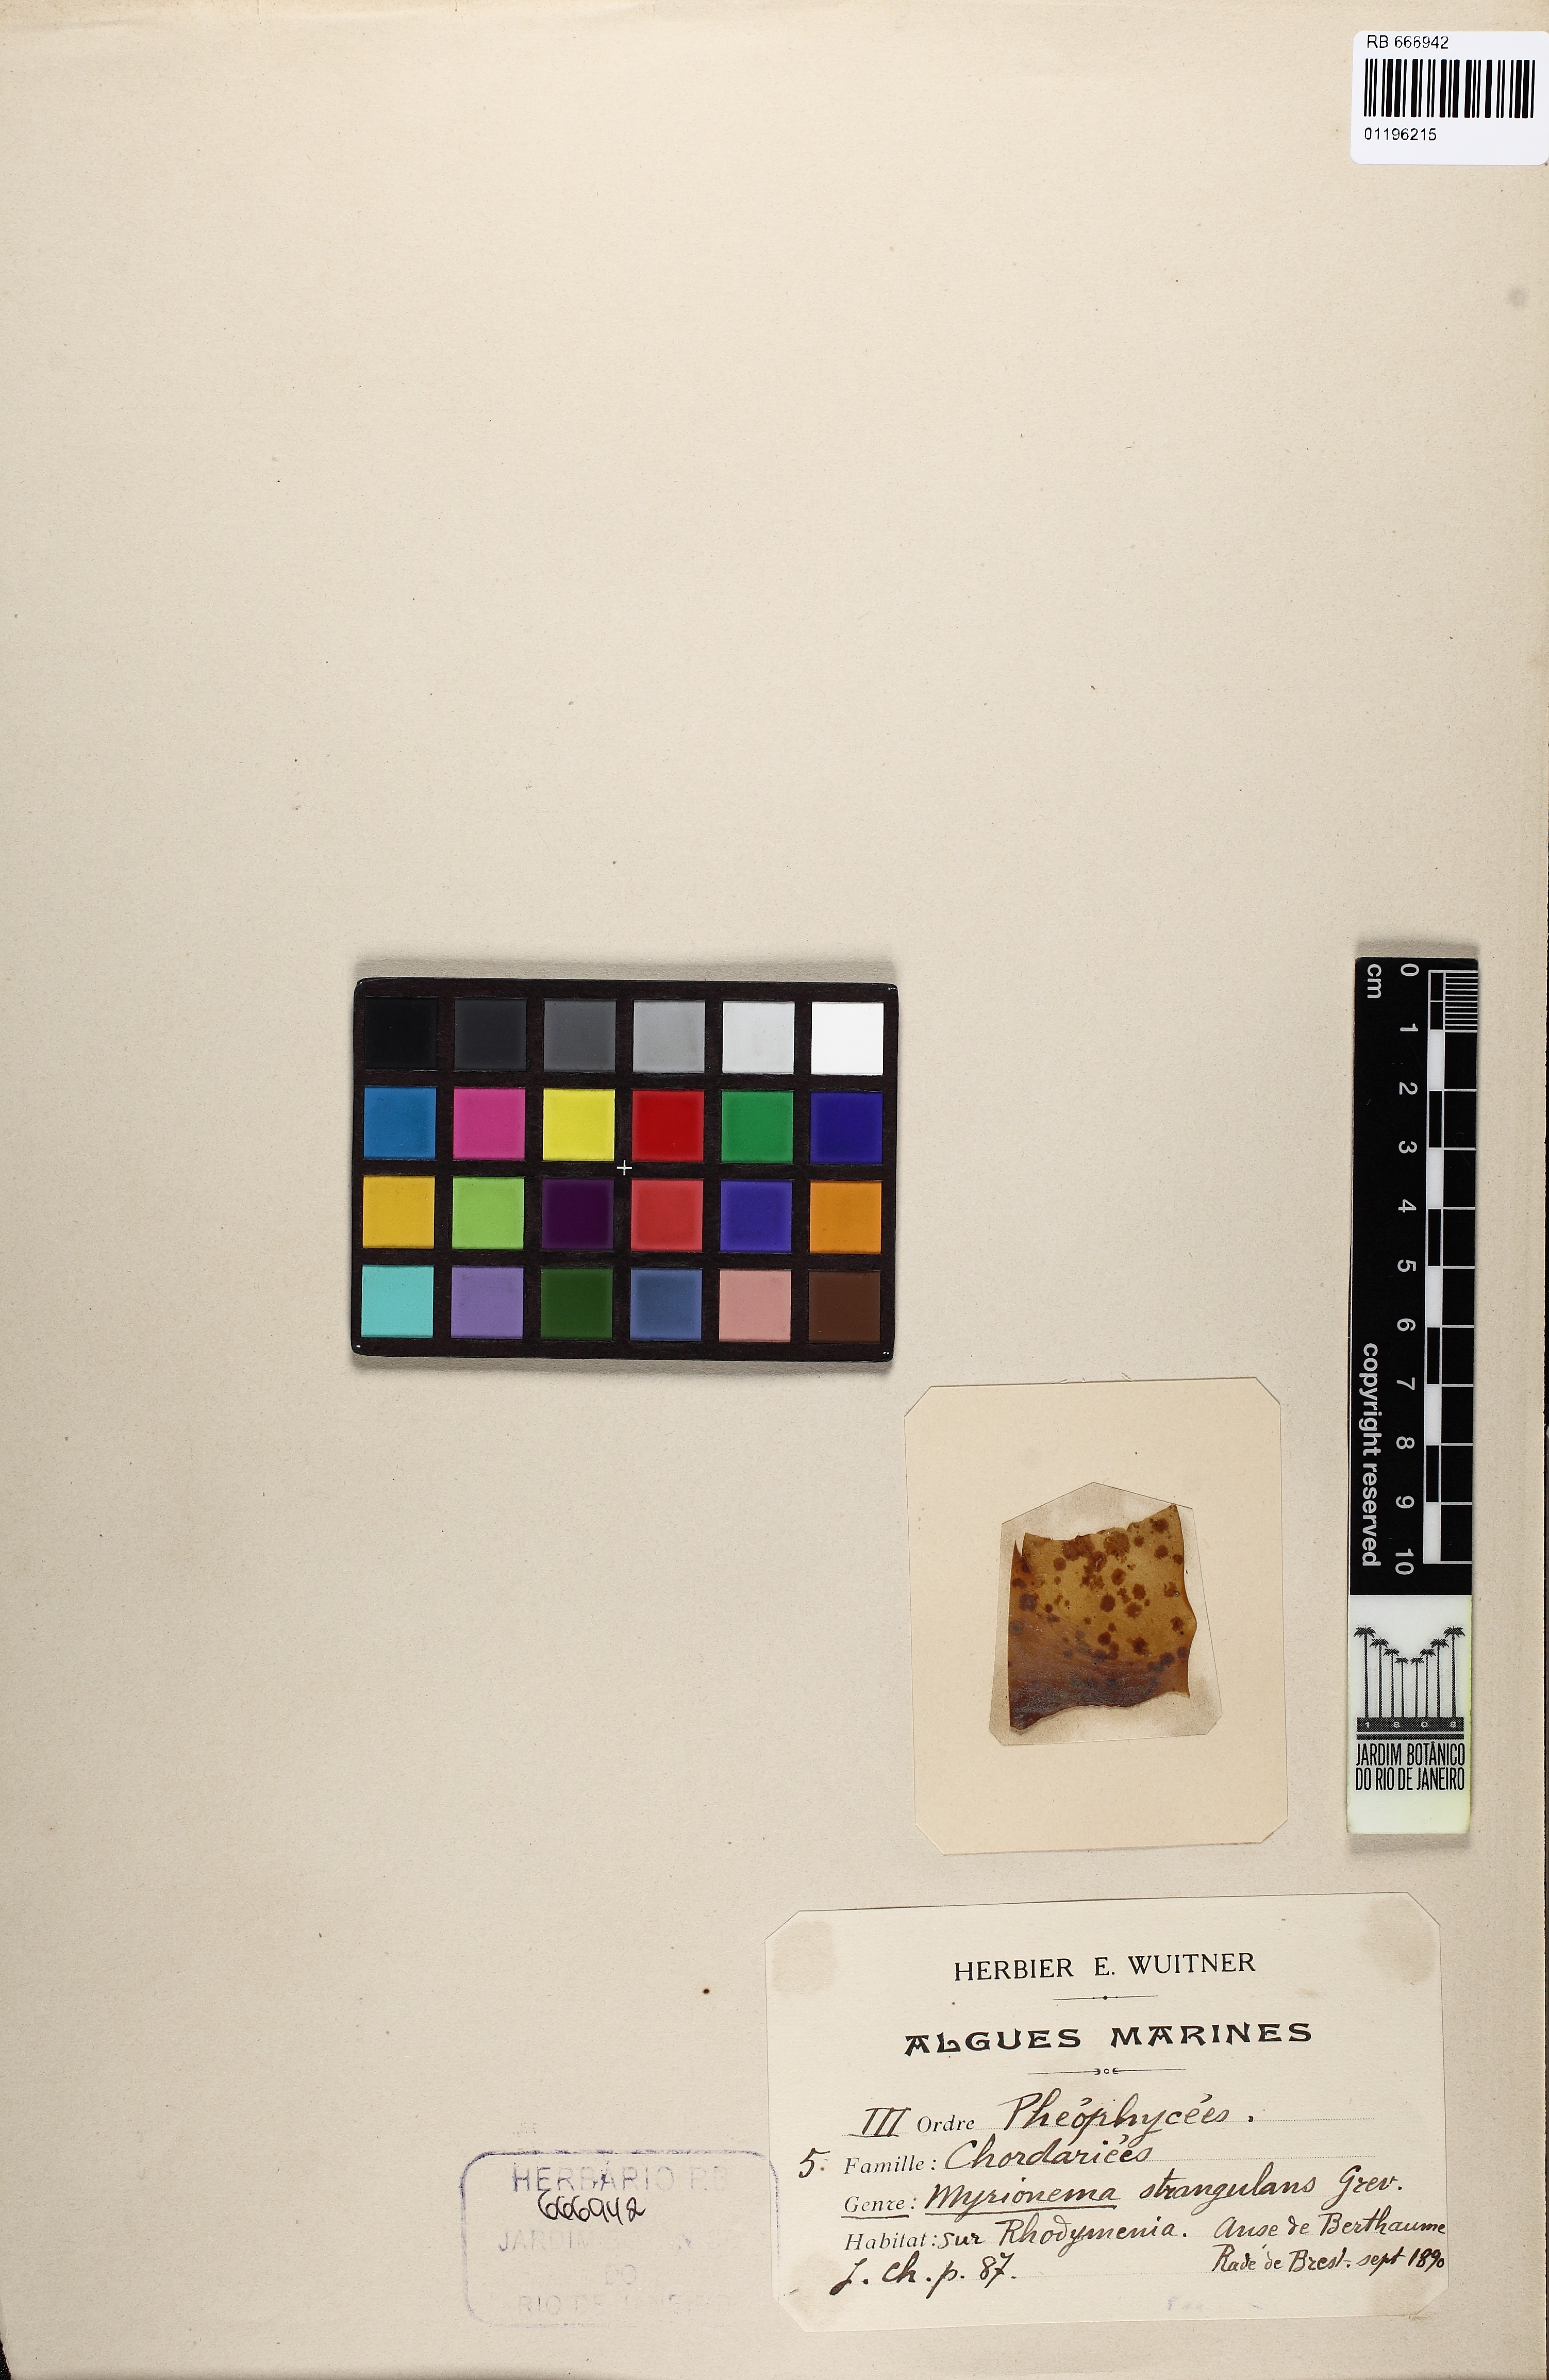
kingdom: Chromista
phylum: Ochrophyta
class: Phaeophyceae
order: Ectocarpales
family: Chordariaceae
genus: Myrionema
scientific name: Myrionema strangulans
